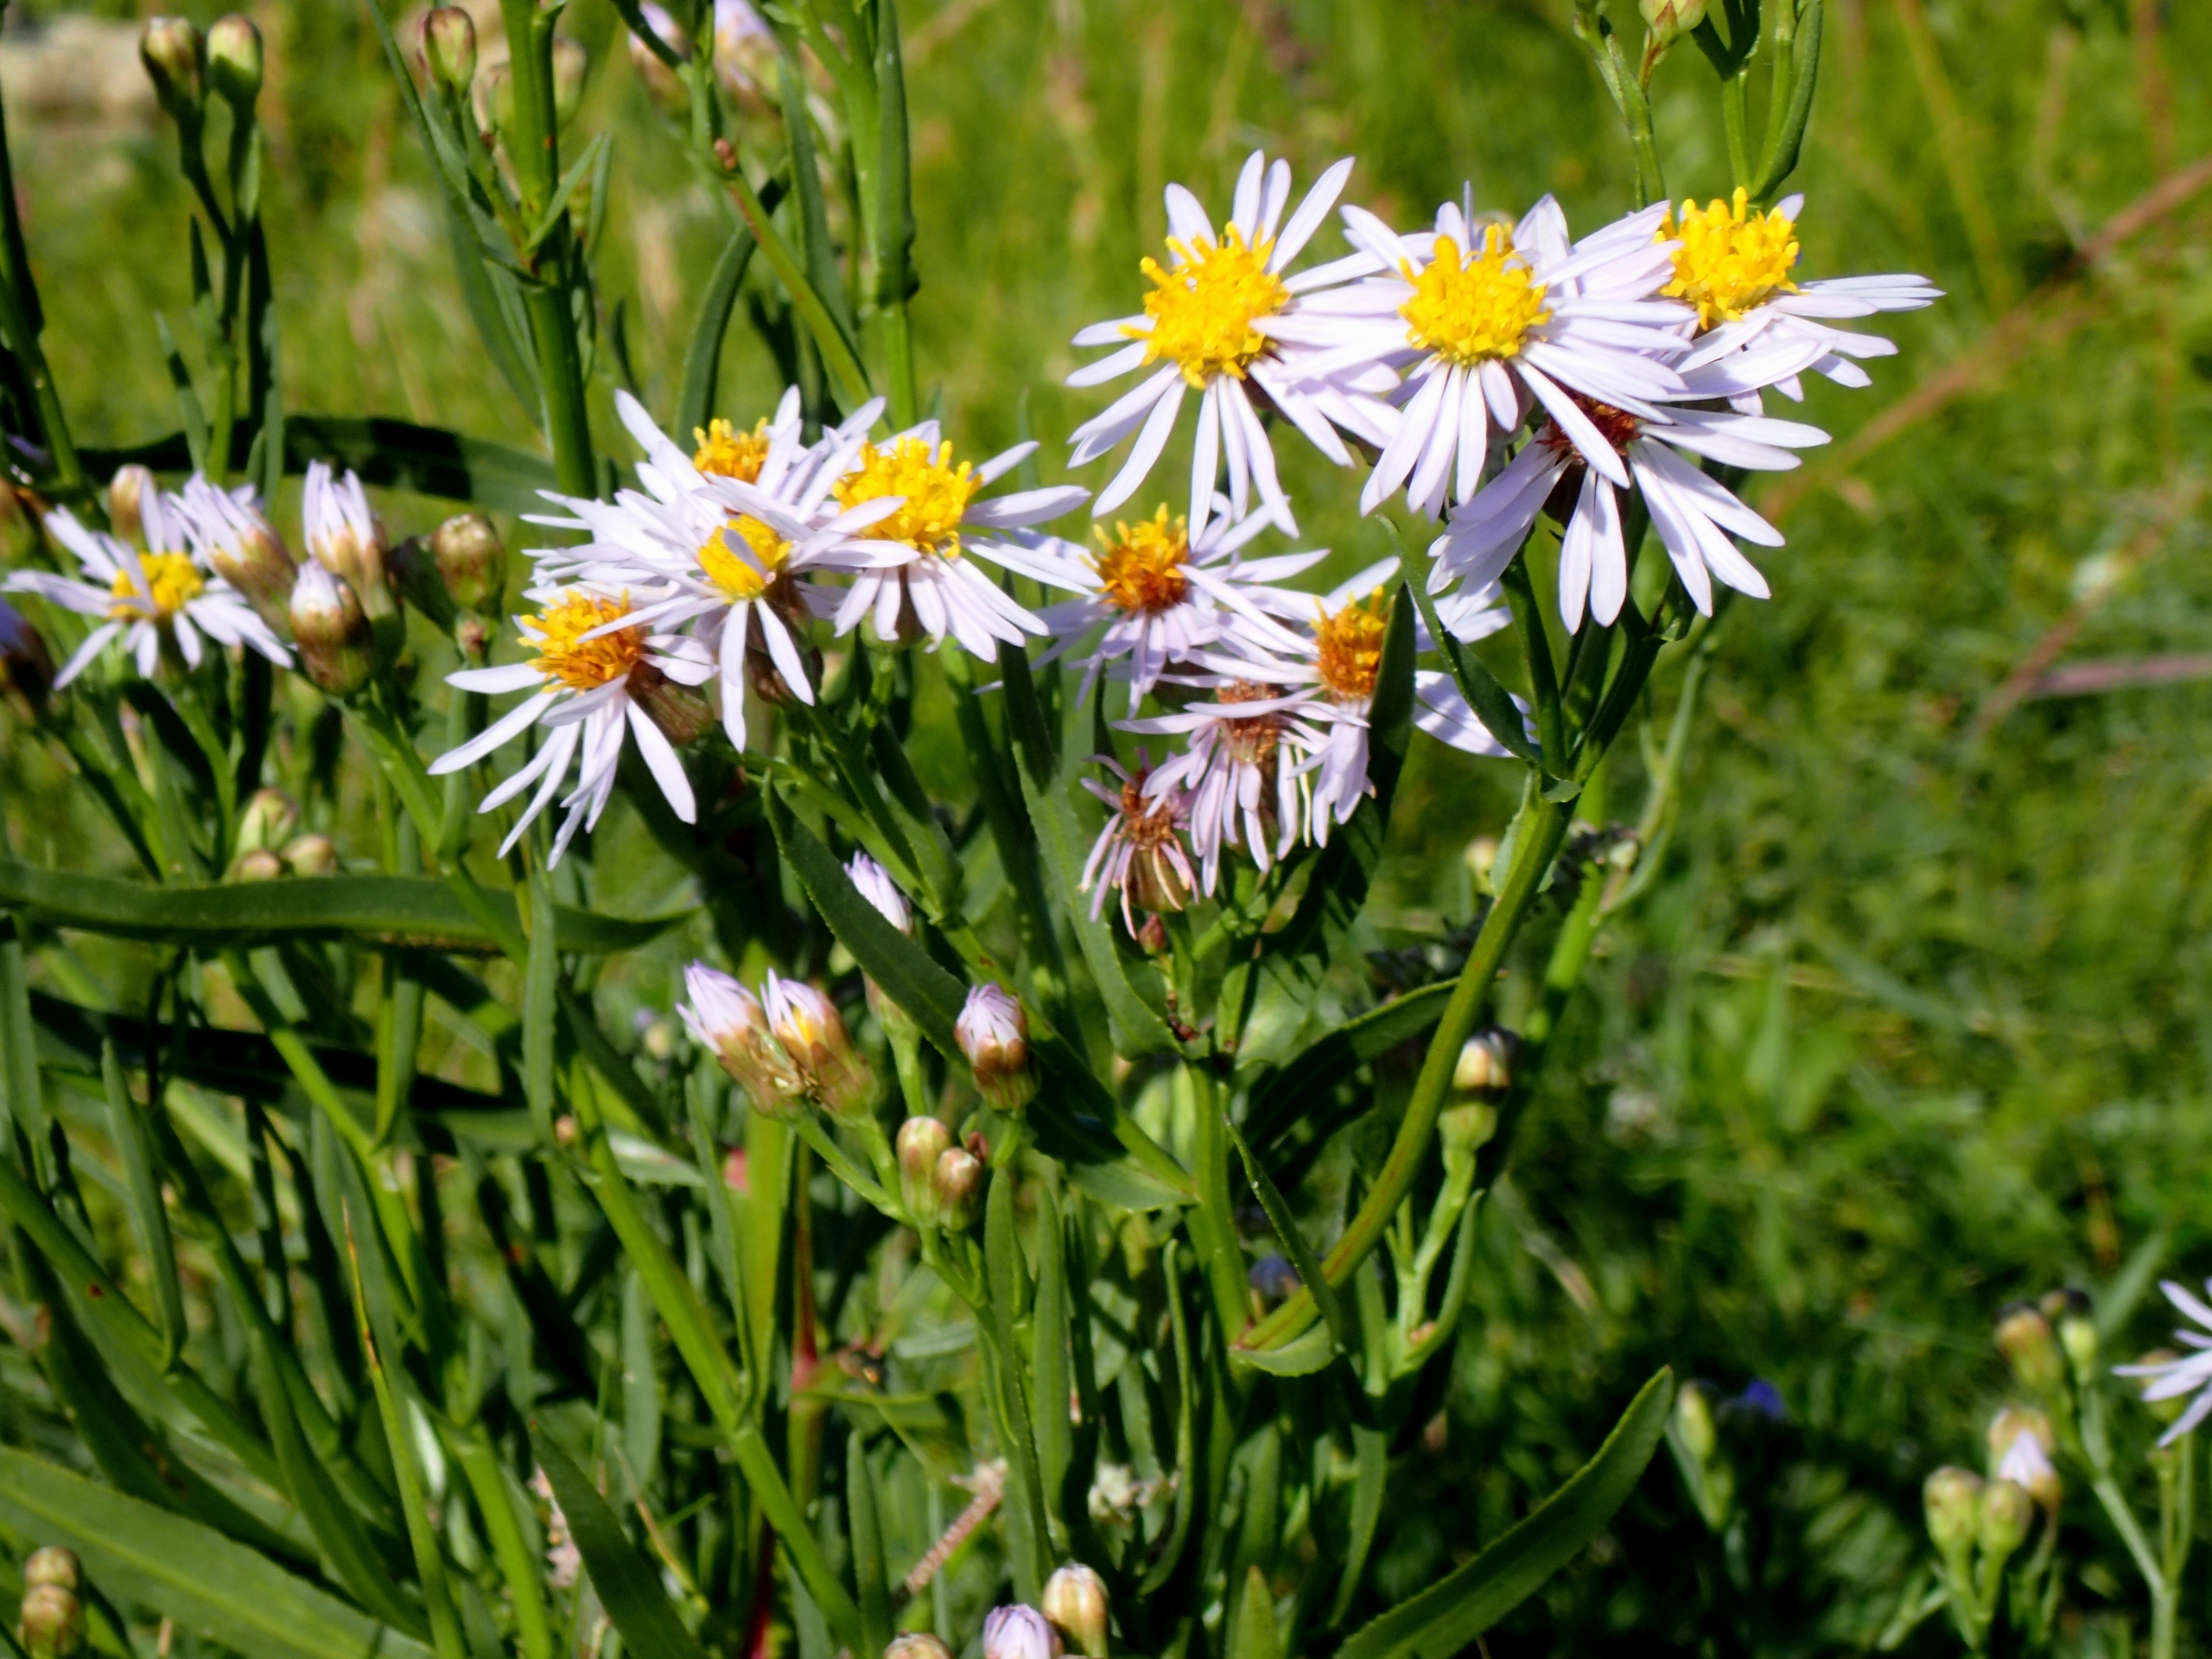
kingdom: Plantae
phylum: Tracheophyta
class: Magnoliopsida
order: Asterales
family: Asteraceae
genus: Tripolium
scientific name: Tripolium pannonicum
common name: Strandasters
